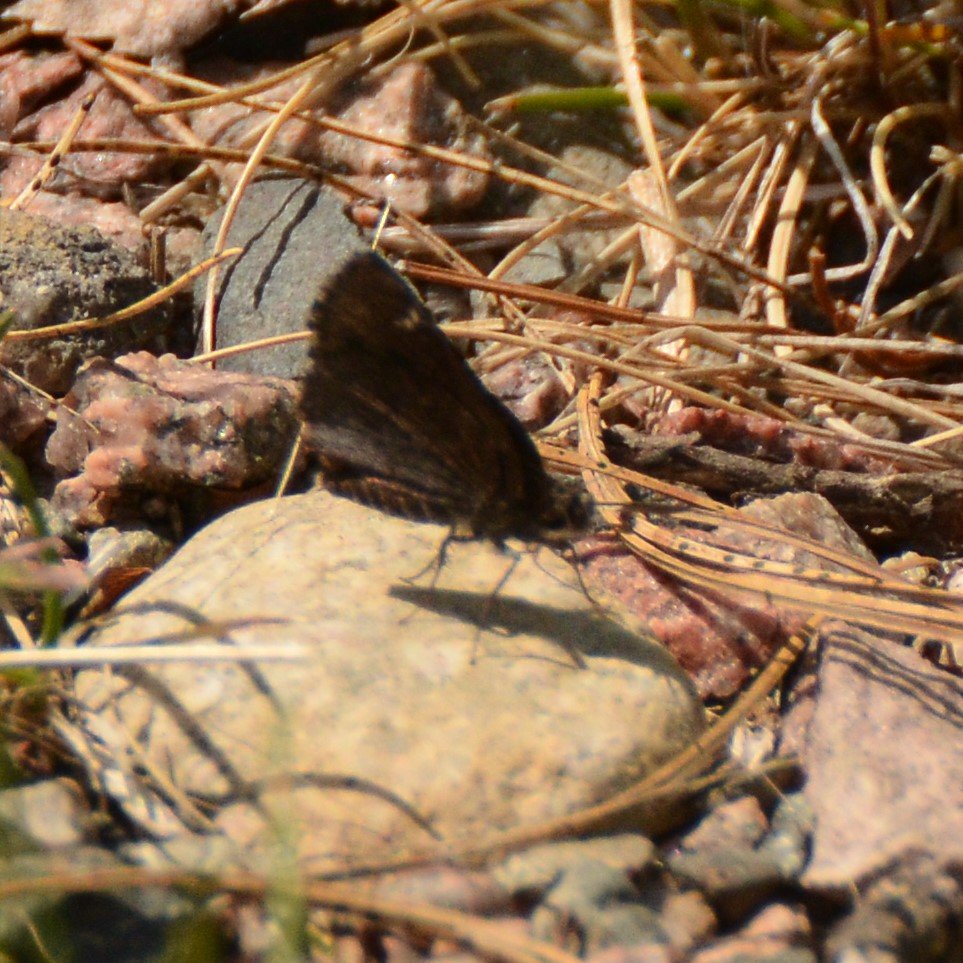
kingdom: Animalia
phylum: Arthropoda
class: Insecta
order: Lepidoptera
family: Hesperiidae
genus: Mastor
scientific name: Mastor vialis
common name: Common Roadside-Skipper
